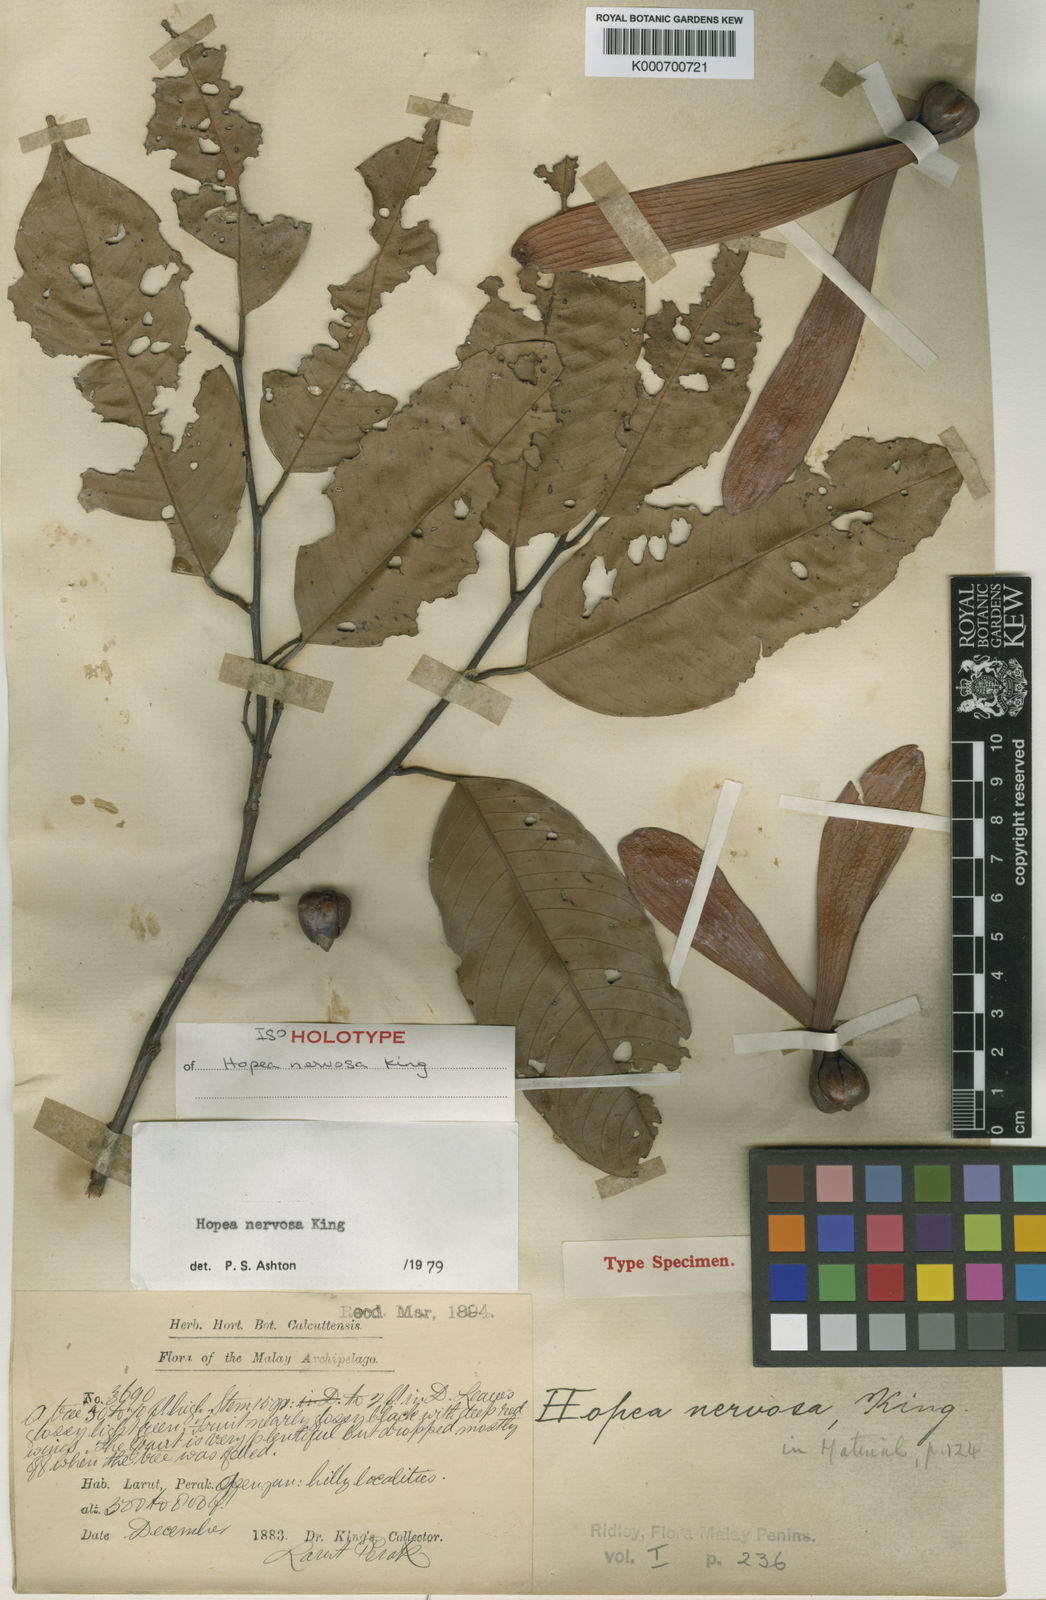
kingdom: Plantae
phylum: Tracheophyta
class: Magnoliopsida
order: Malvales
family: Dipterocarpaceae
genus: Hopea
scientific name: Hopea nervosa
